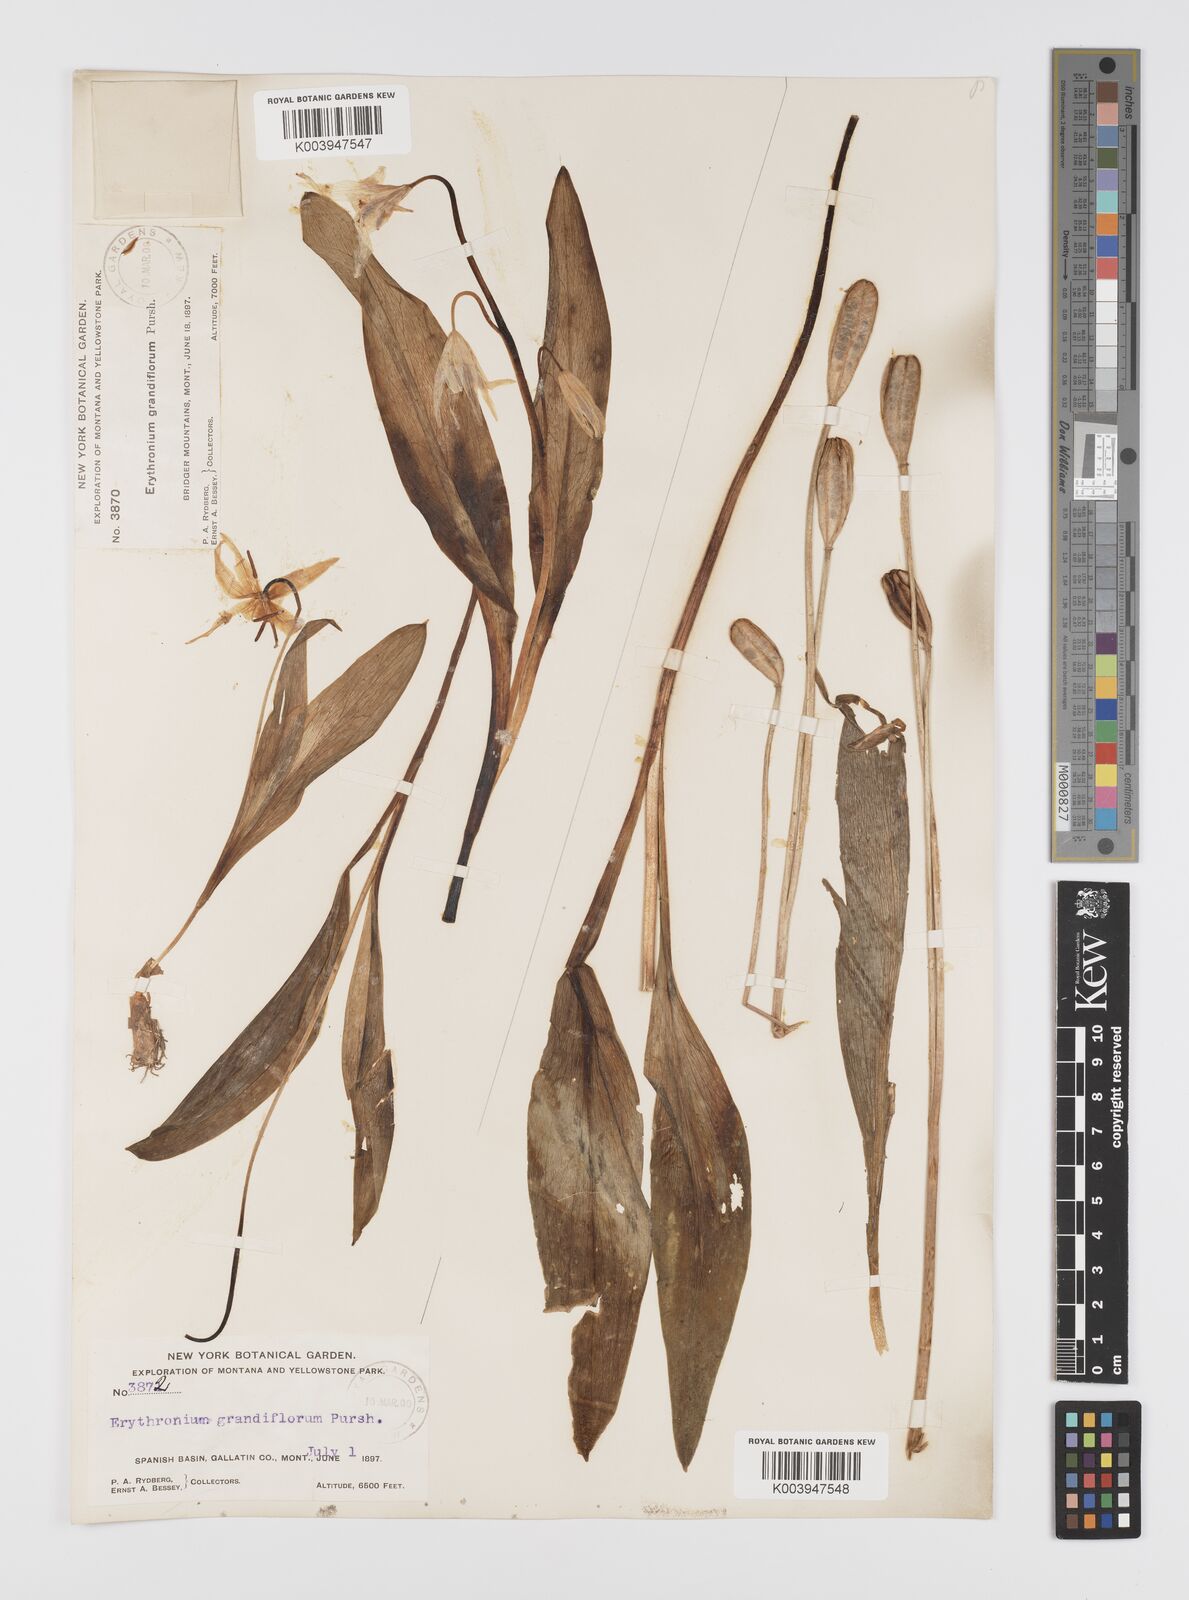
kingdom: Plantae
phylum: Tracheophyta
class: Liliopsida
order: Liliales
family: Liliaceae
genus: Erythronium
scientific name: Erythronium grandiflorum
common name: Avalanche-lily
